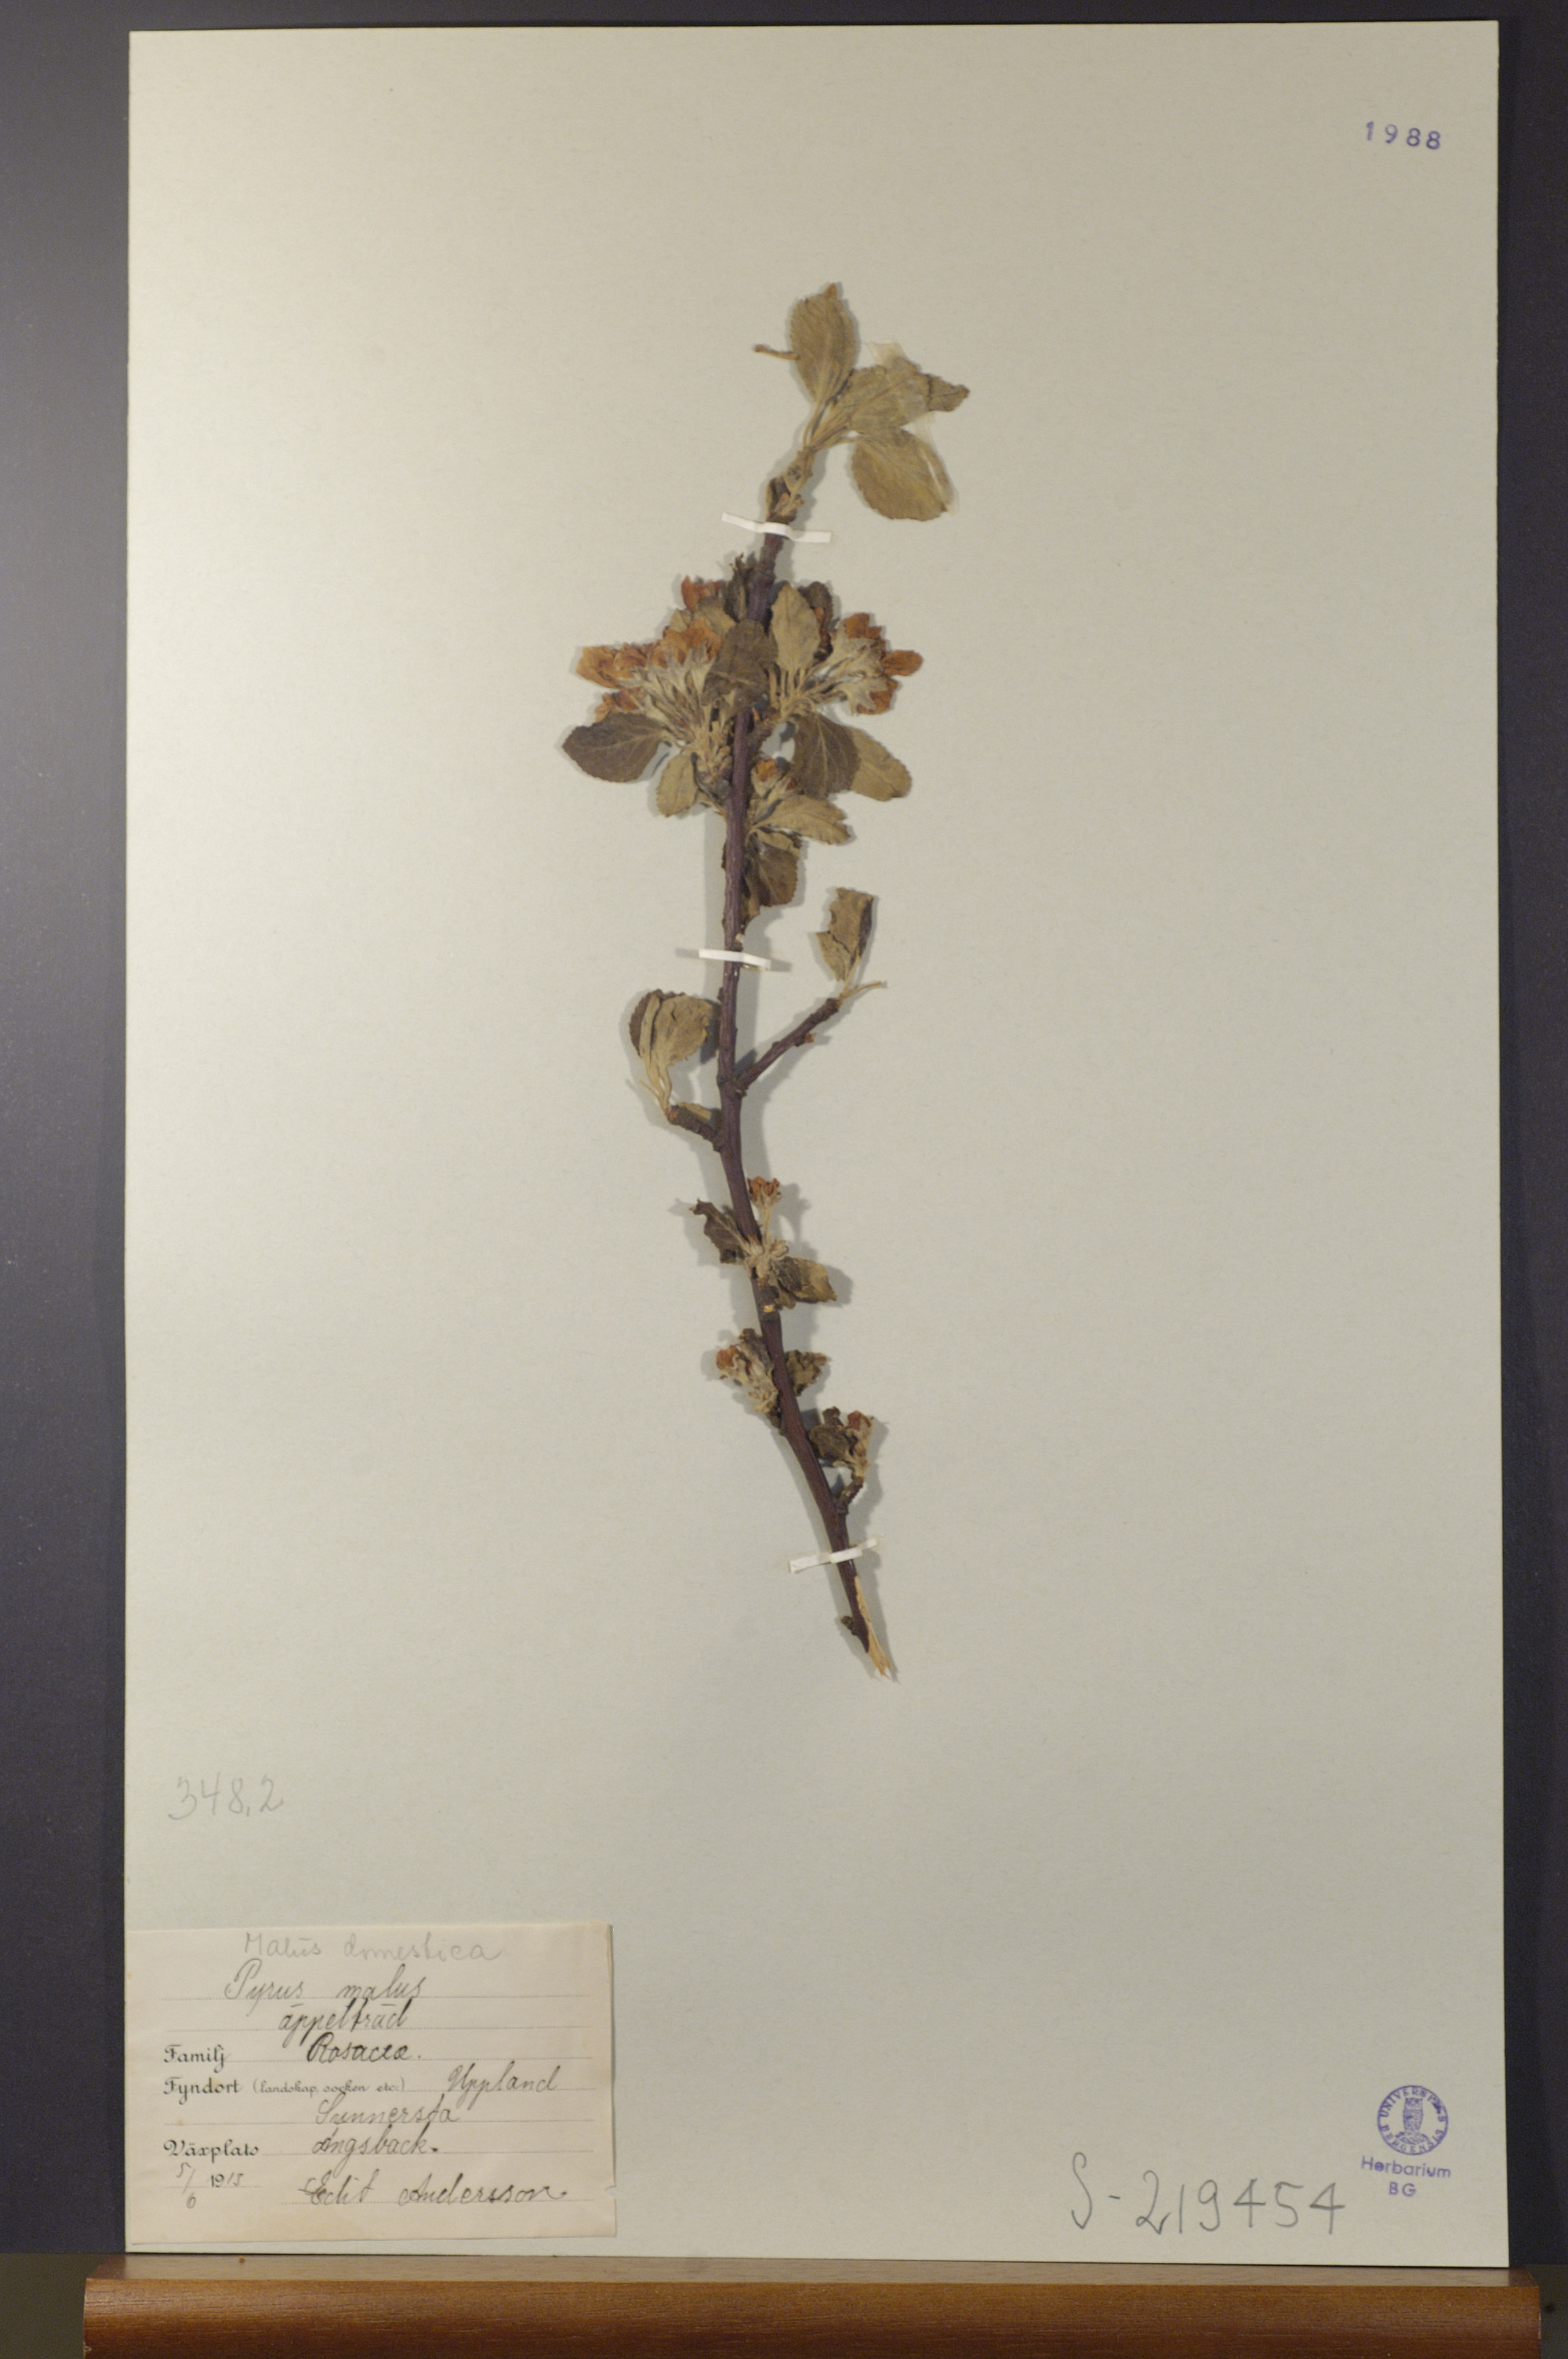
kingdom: Plantae
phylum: Tracheophyta
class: Magnoliopsida
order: Rosales
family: Rosaceae
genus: Malus
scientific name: Malus domestica
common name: Apple
